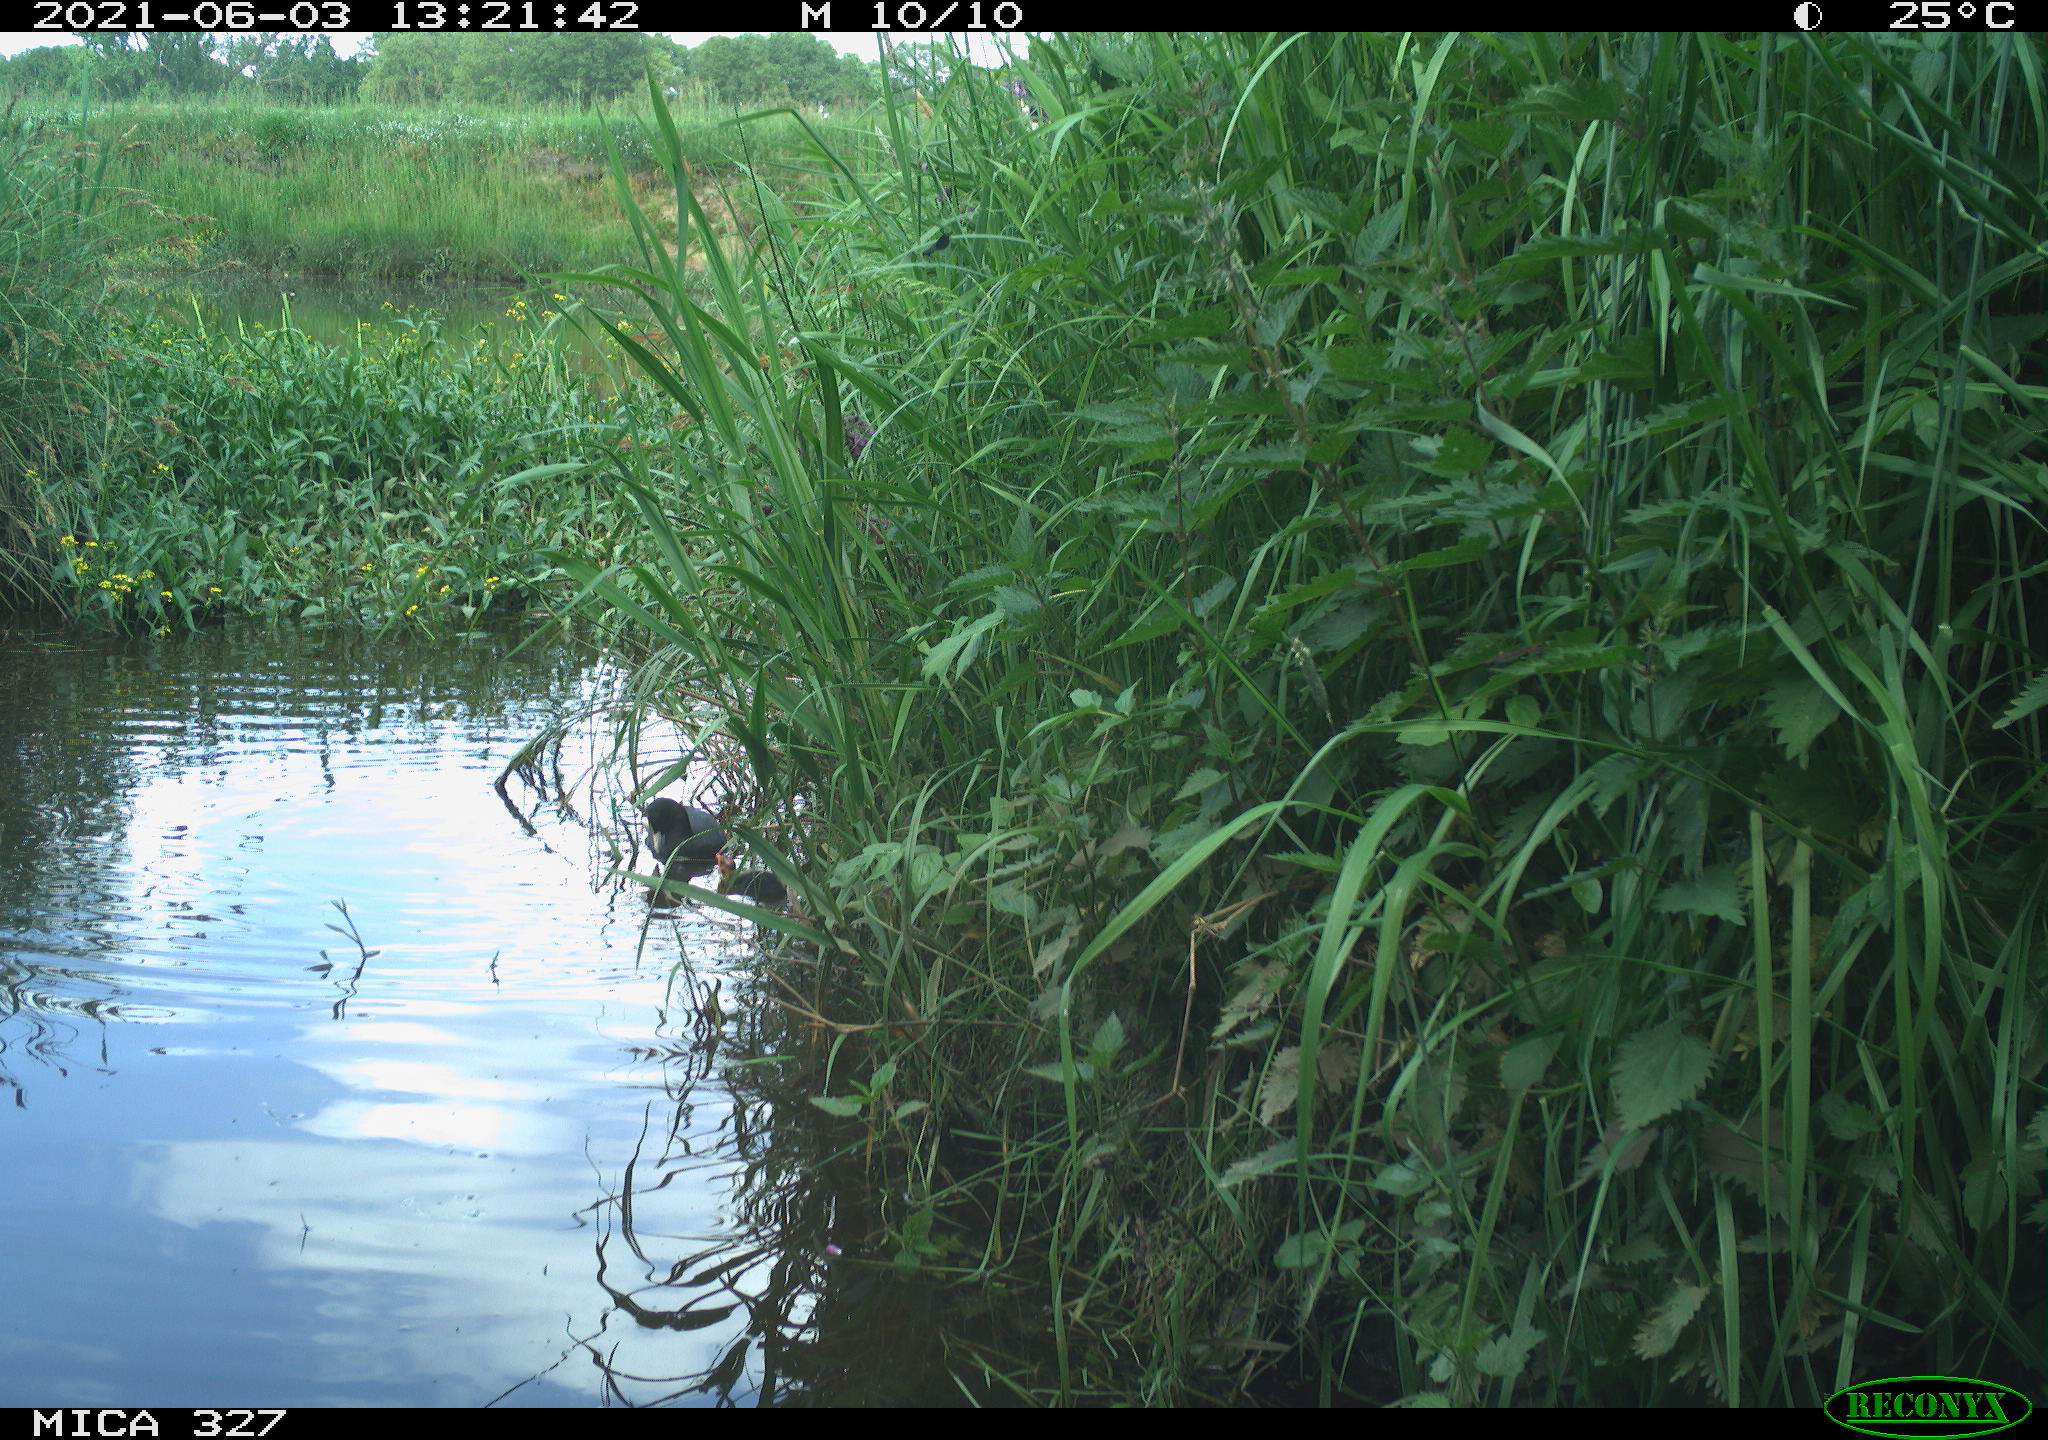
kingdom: Animalia
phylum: Chordata
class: Aves
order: Gruiformes
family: Rallidae
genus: Fulica
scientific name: Fulica atra
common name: Eurasian coot
